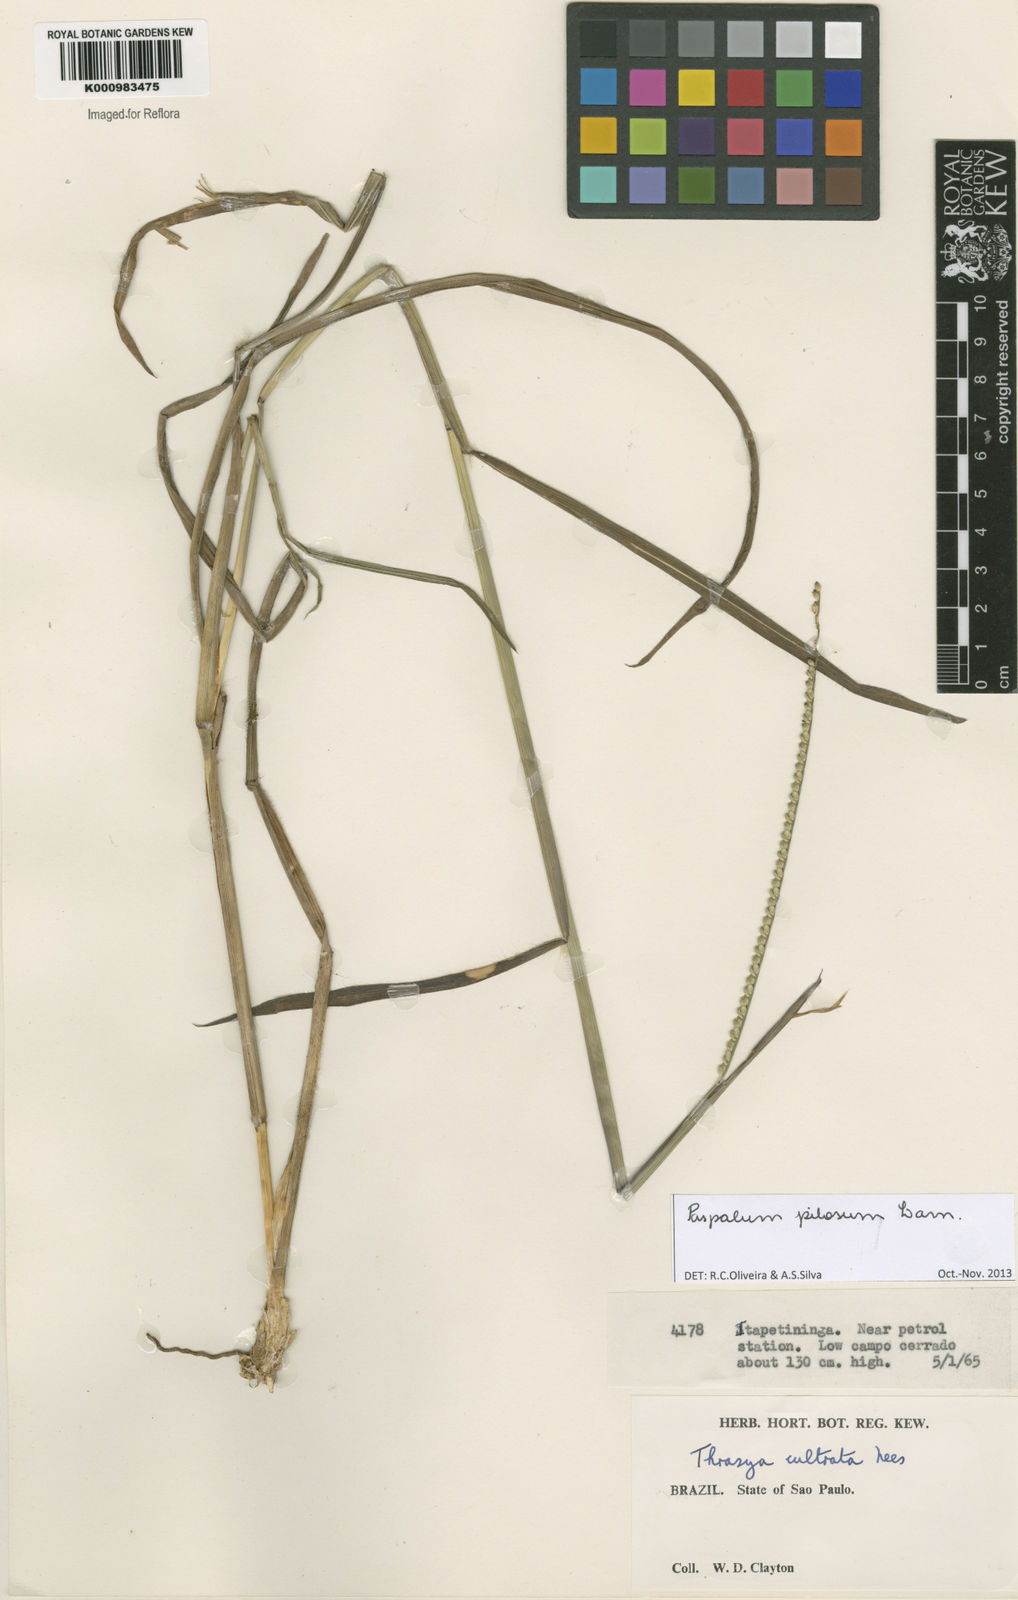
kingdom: Plantae
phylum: Tracheophyta
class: Liliopsida
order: Poales
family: Poaceae
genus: Paspalum
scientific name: Paspalum pilosum
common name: Crowngrass
